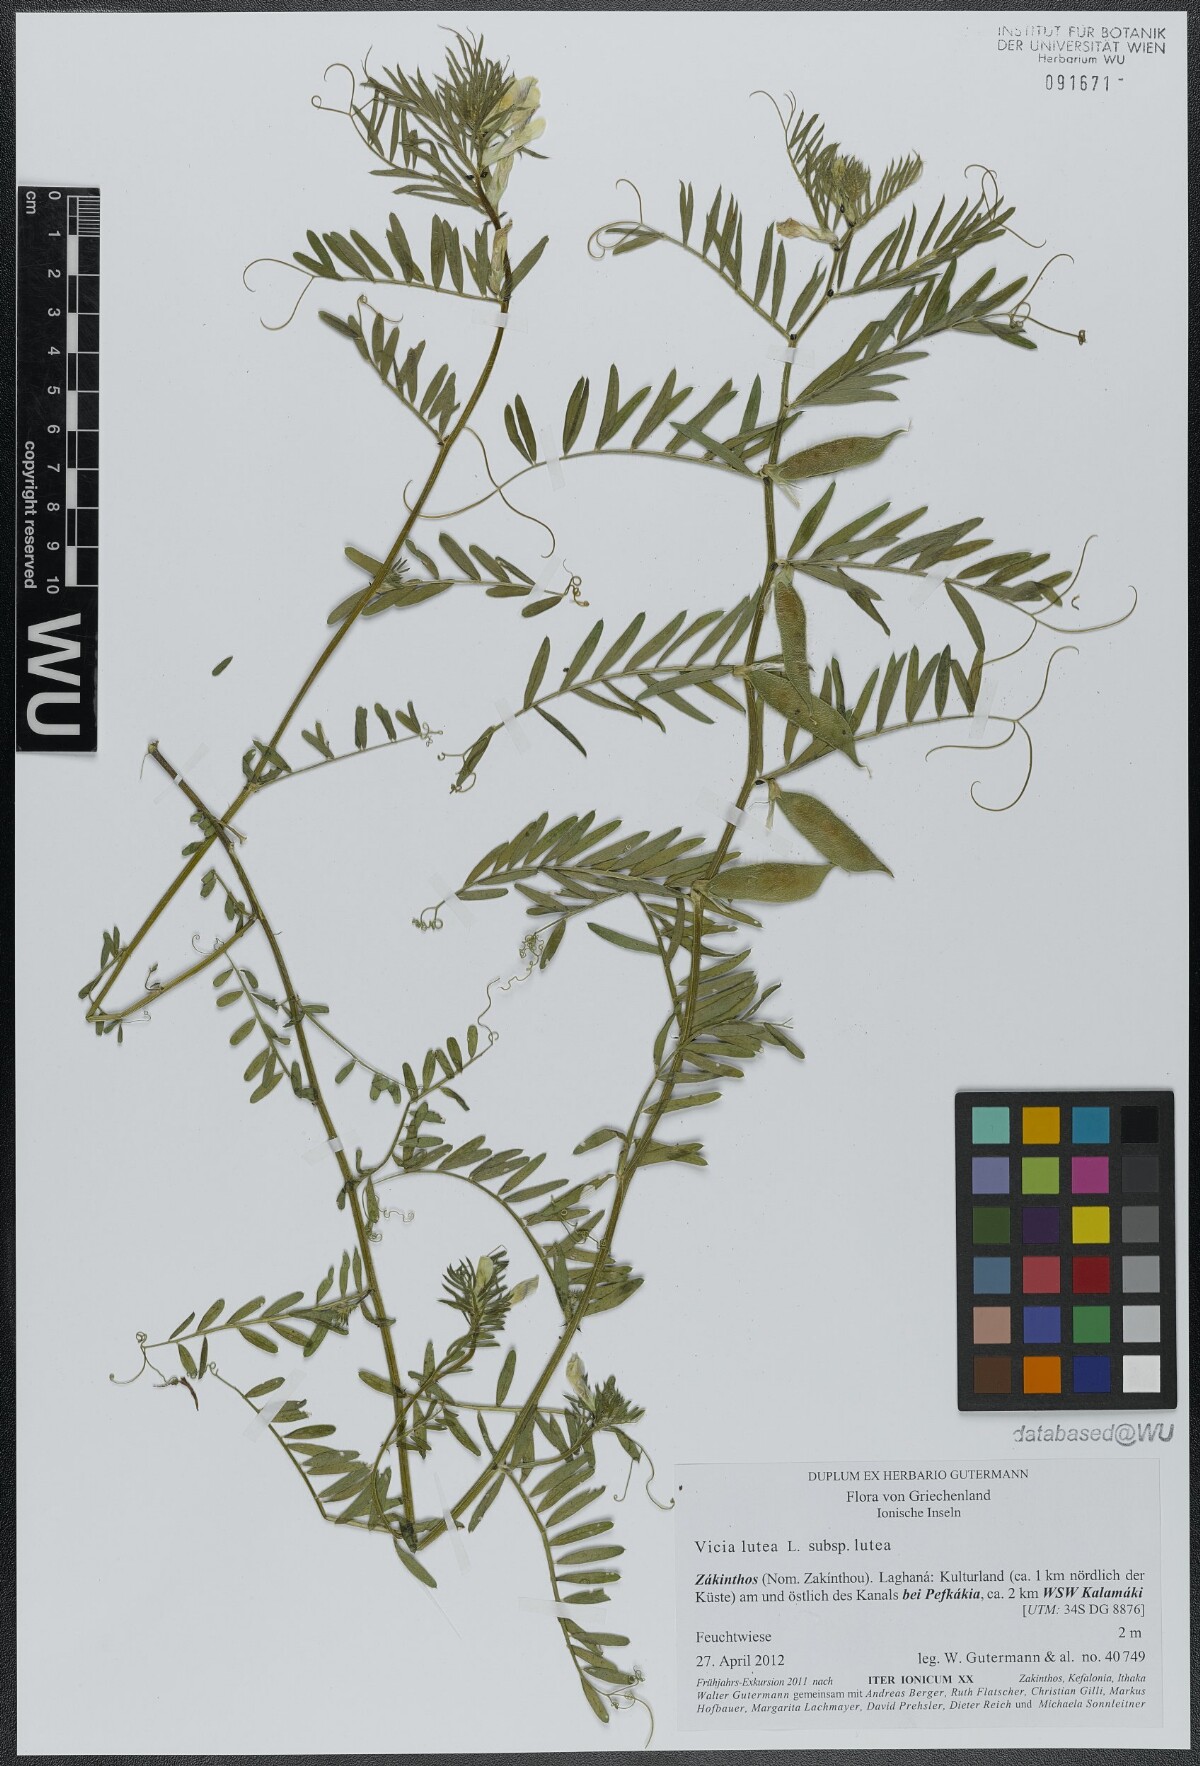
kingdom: Plantae
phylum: Tracheophyta
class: Magnoliopsida
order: Fabales
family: Fabaceae
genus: Vicia
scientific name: Vicia lutea
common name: Smooth yellow vetch
